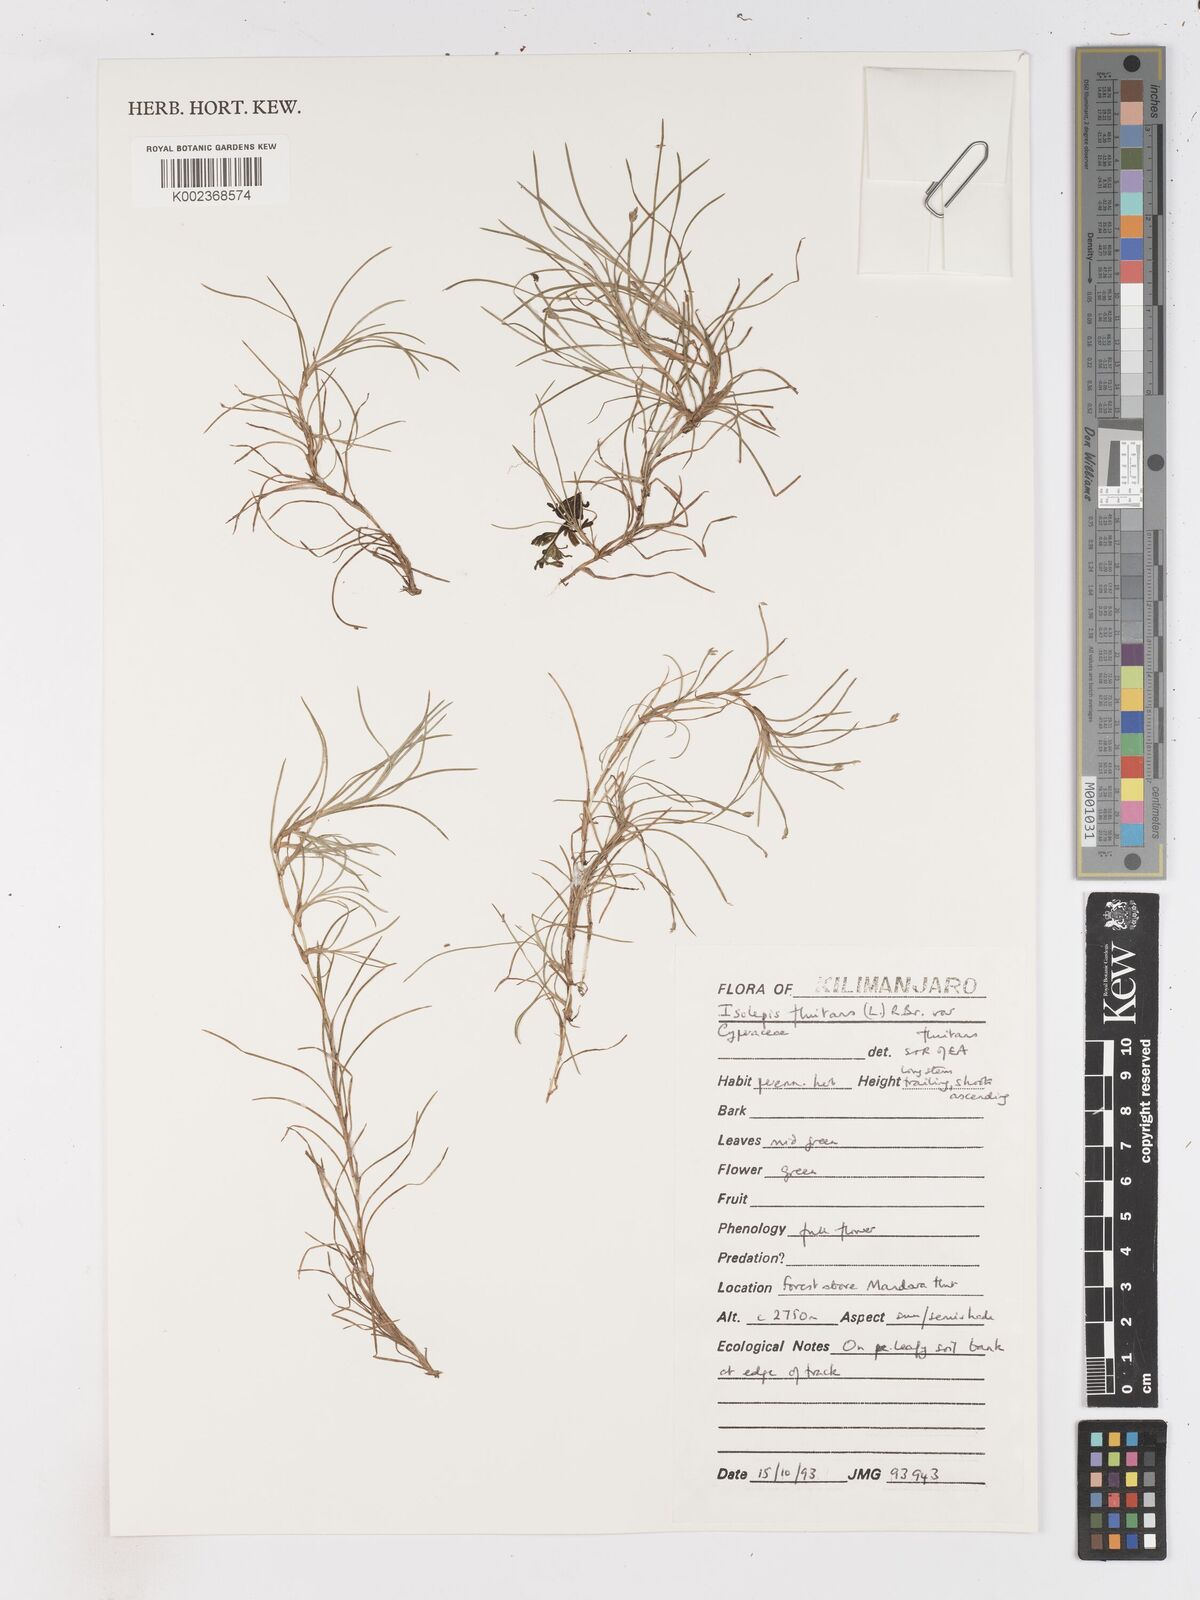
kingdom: Plantae
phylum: Tracheophyta
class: Liliopsida
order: Poales
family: Cyperaceae
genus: Isolepis
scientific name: Isolepis fluitans
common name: Floating club-rush
